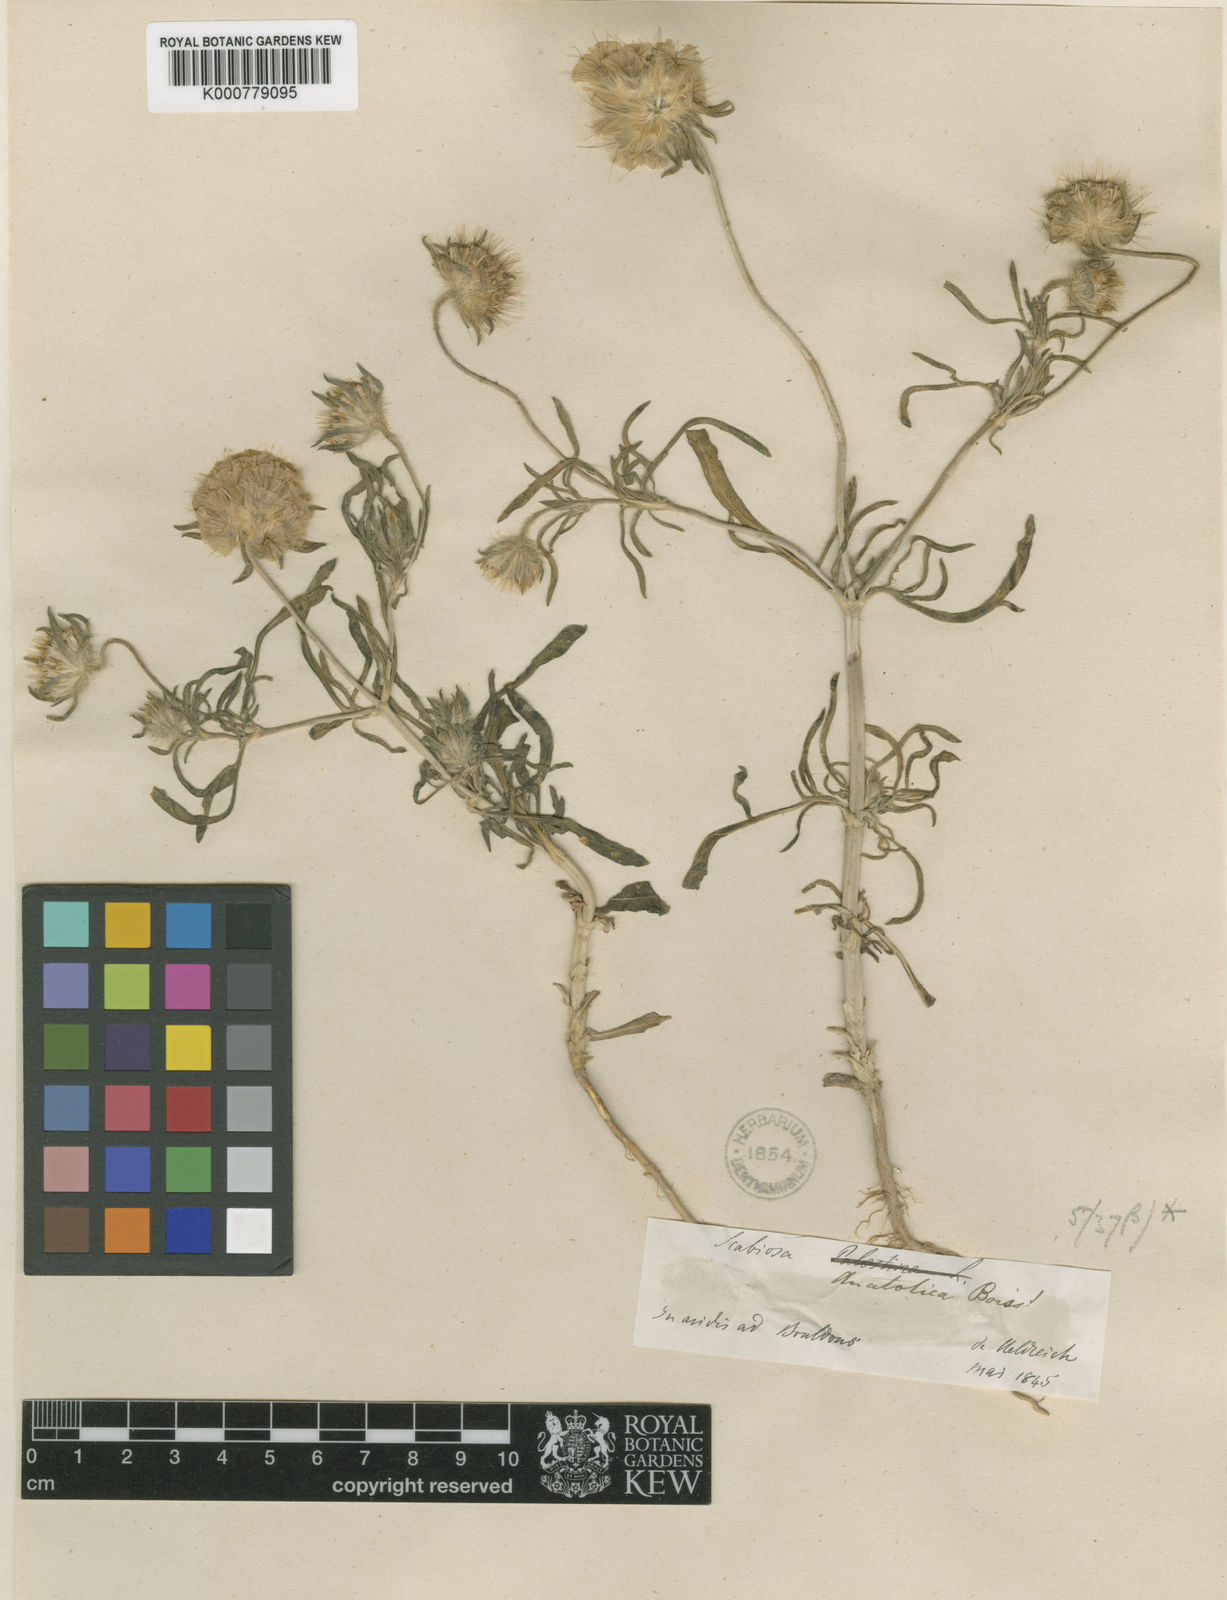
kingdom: Plantae
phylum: Tracheophyta
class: Magnoliopsida
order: Dipsacales
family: Caprifoliaceae
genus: Lomelosia
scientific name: Lomelosia rotata
